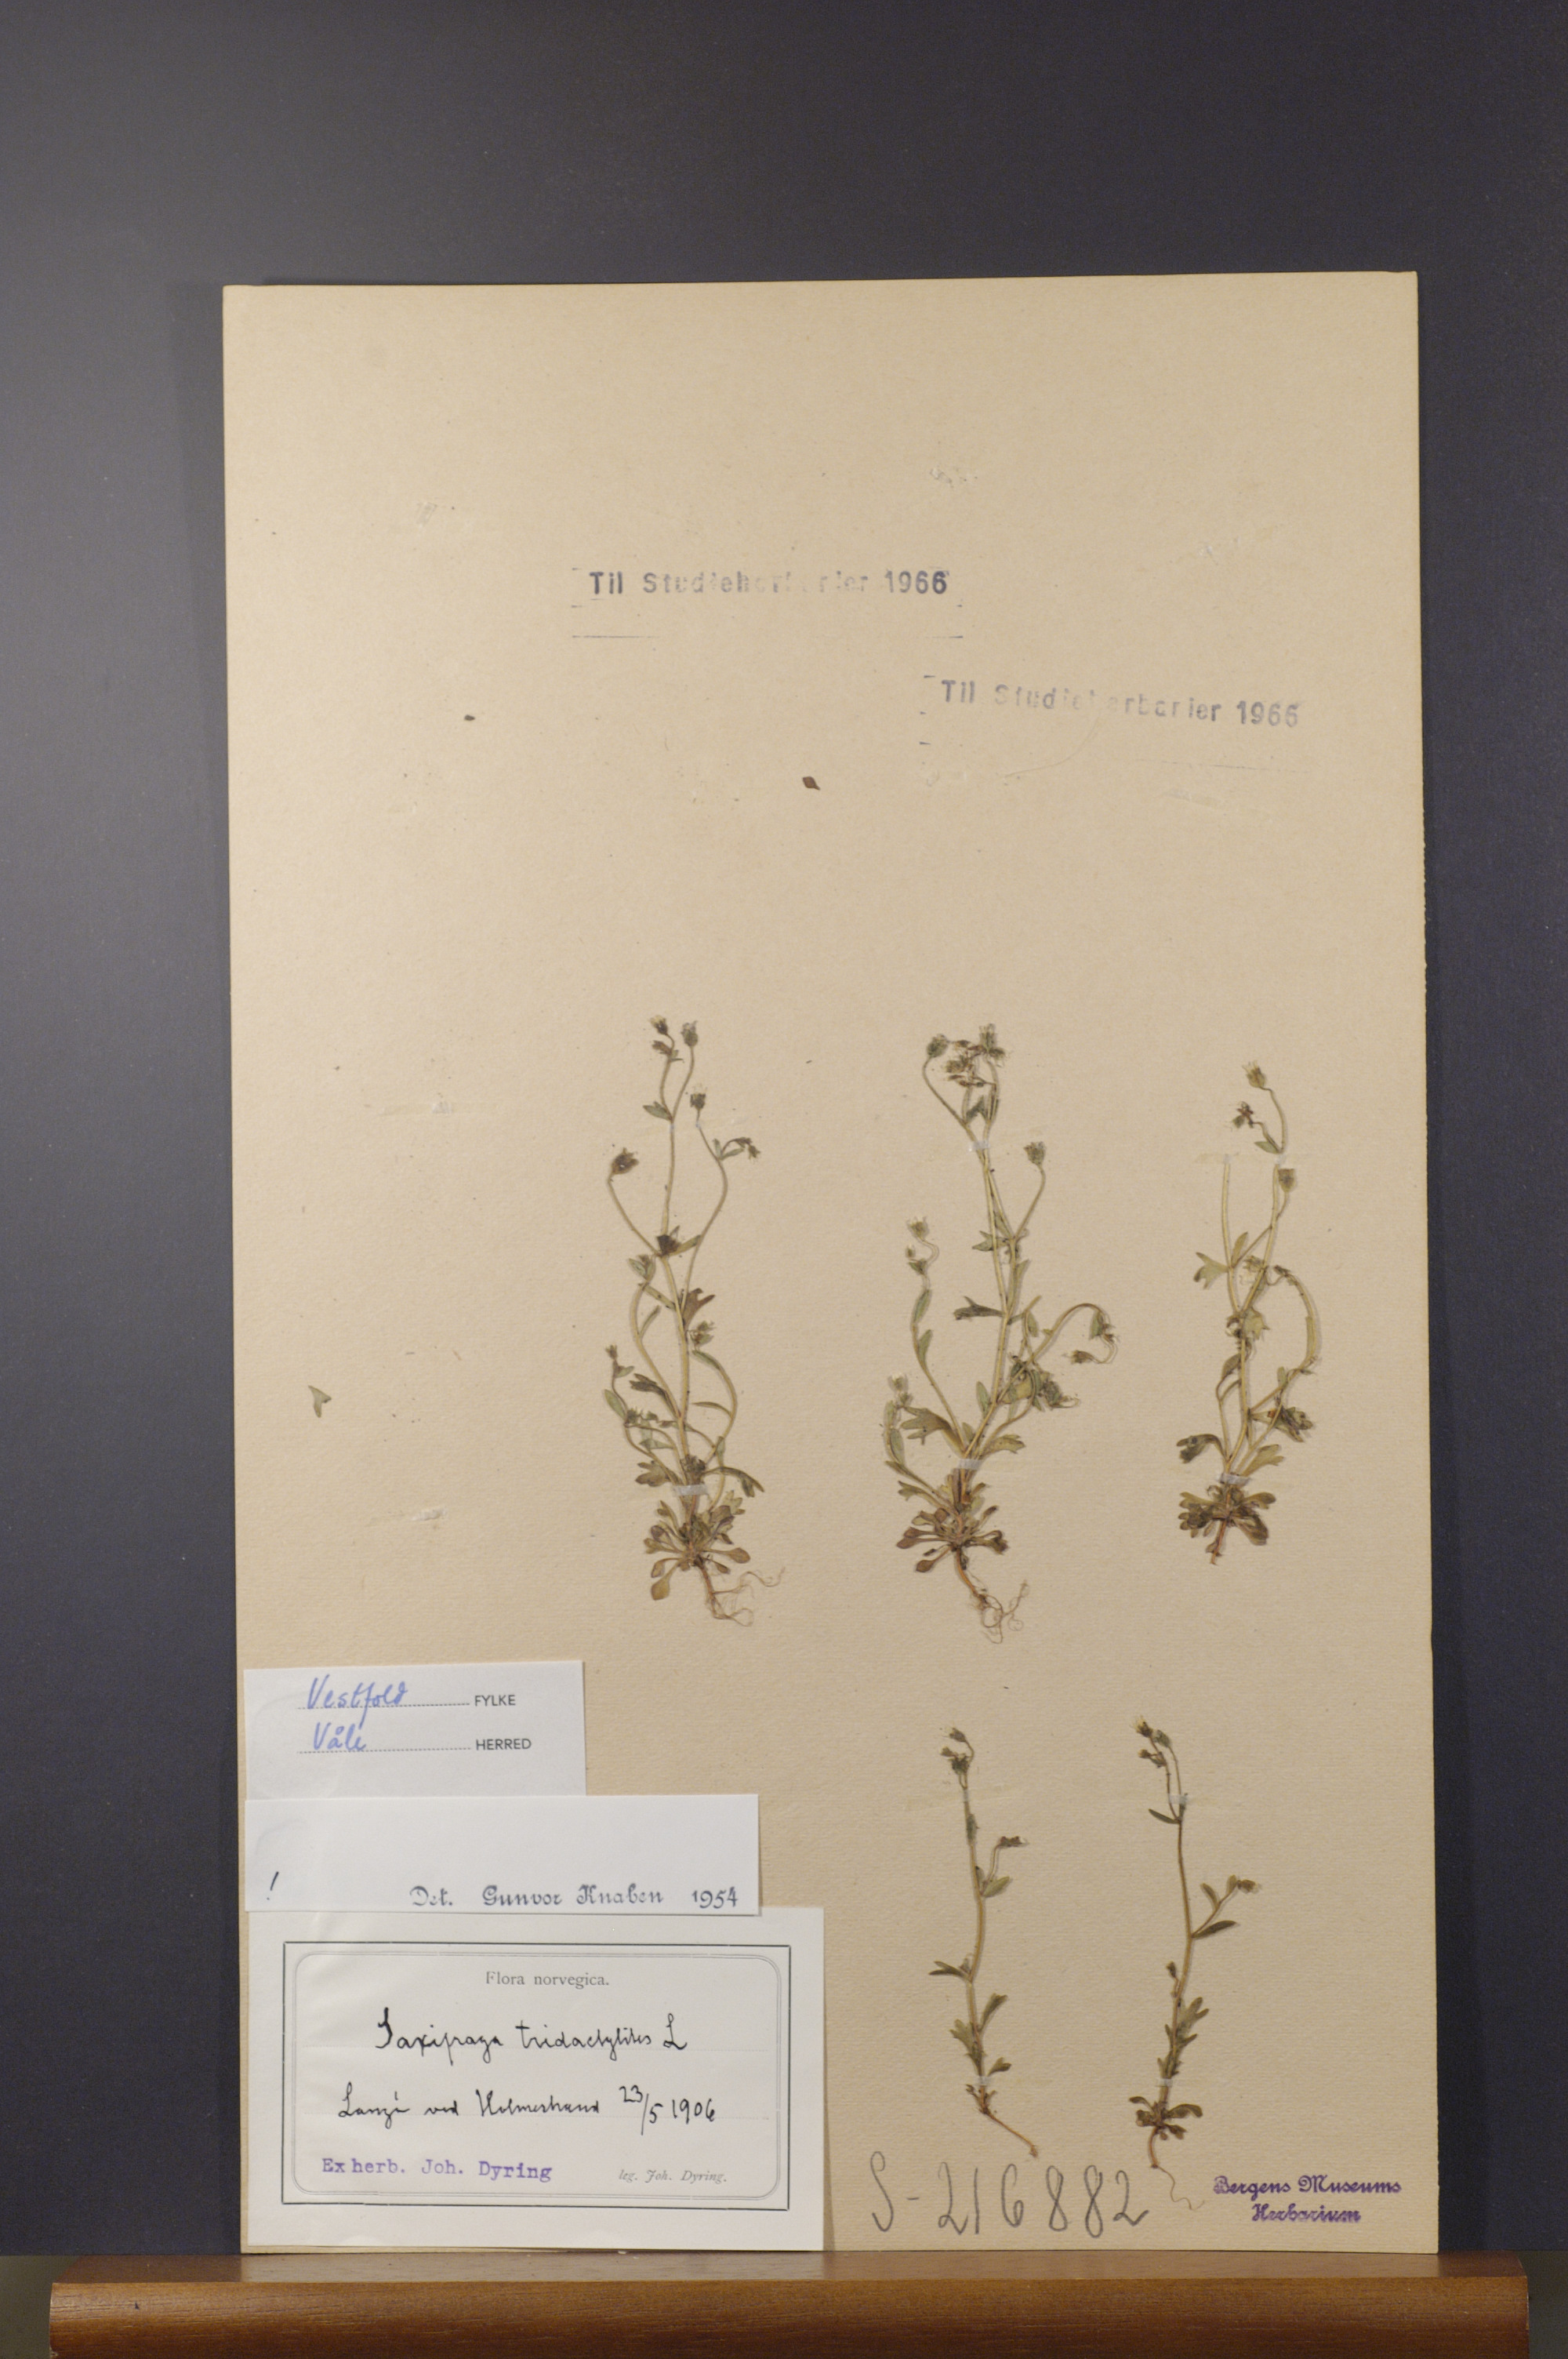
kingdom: Plantae
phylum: Tracheophyta
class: Magnoliopsida
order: Saxifragales
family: Saxifragaceae
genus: Saxifraga
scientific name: Saxifraga tridactylites
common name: Rue-leaved saxifrage
